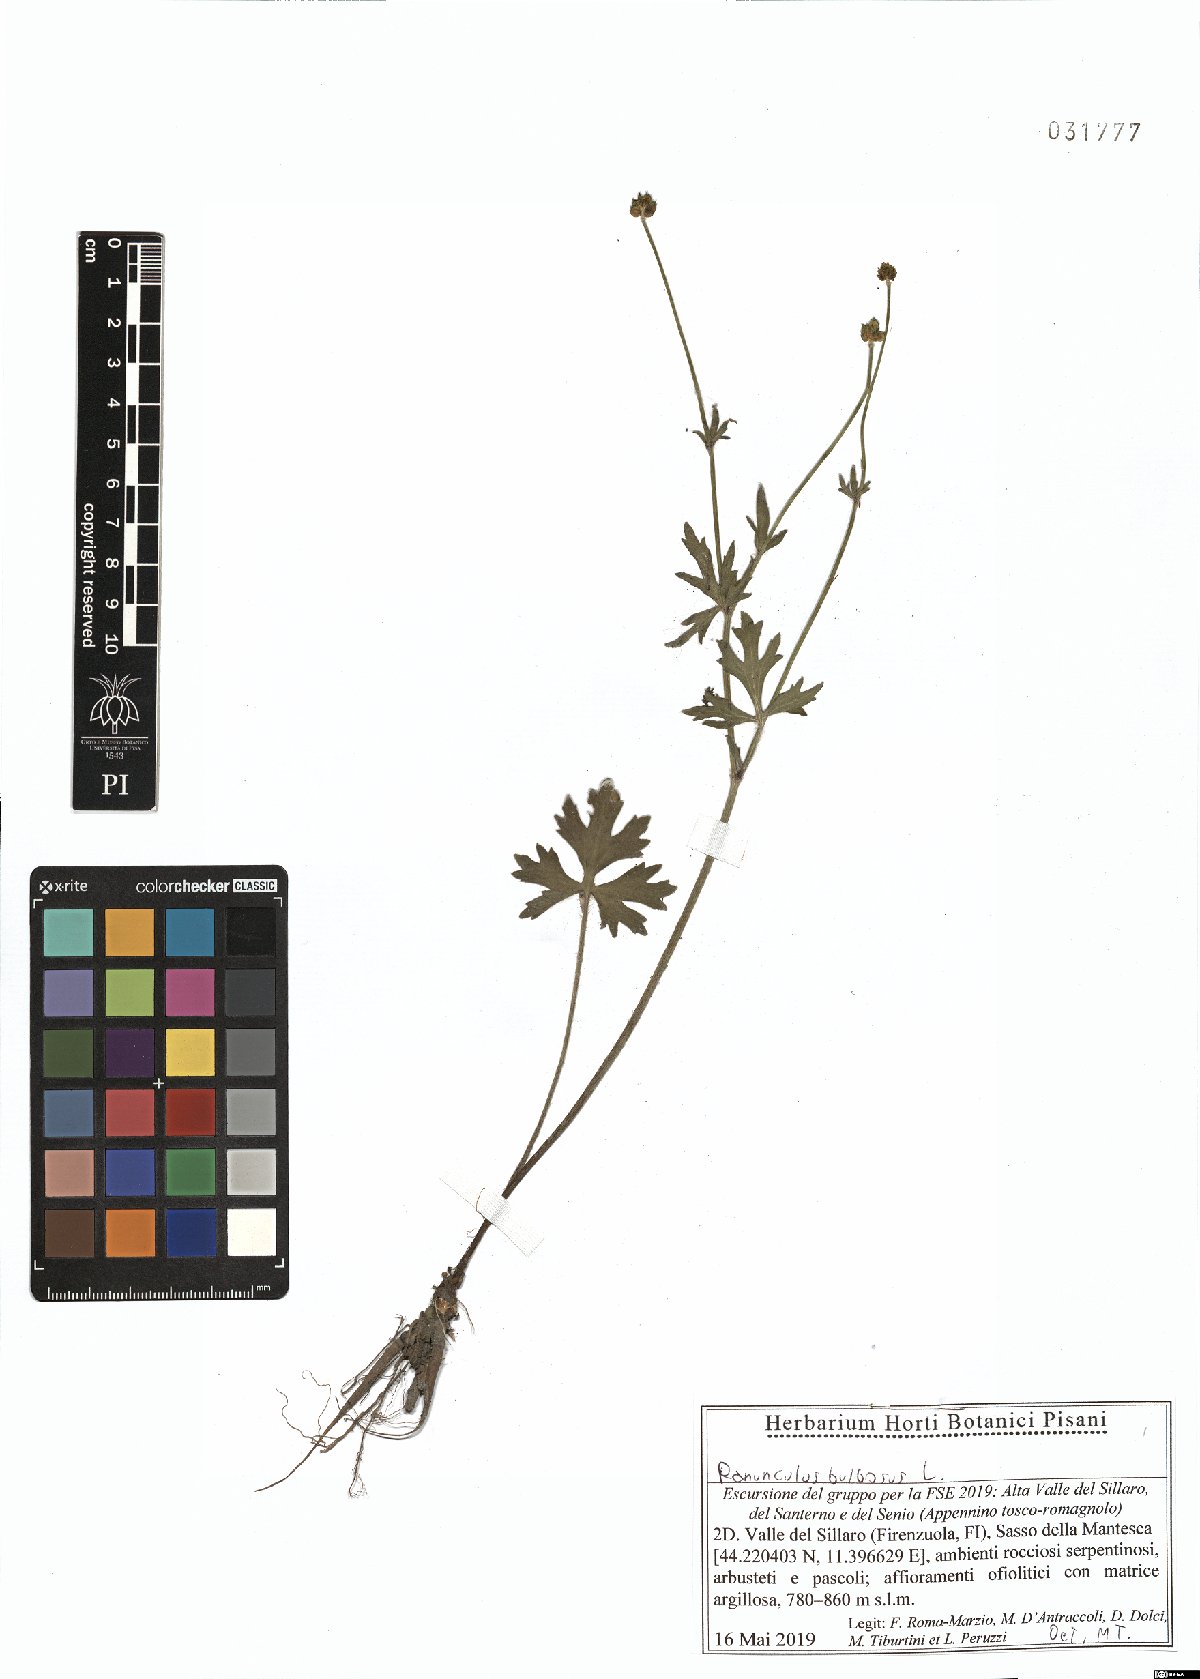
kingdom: Plantae
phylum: Tracheophyta
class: Magnoliopsida
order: Ranunculales
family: Ranunculaceae
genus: Ranunculus
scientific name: Ranunculus bulbosus
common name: Bulbous buttercup
